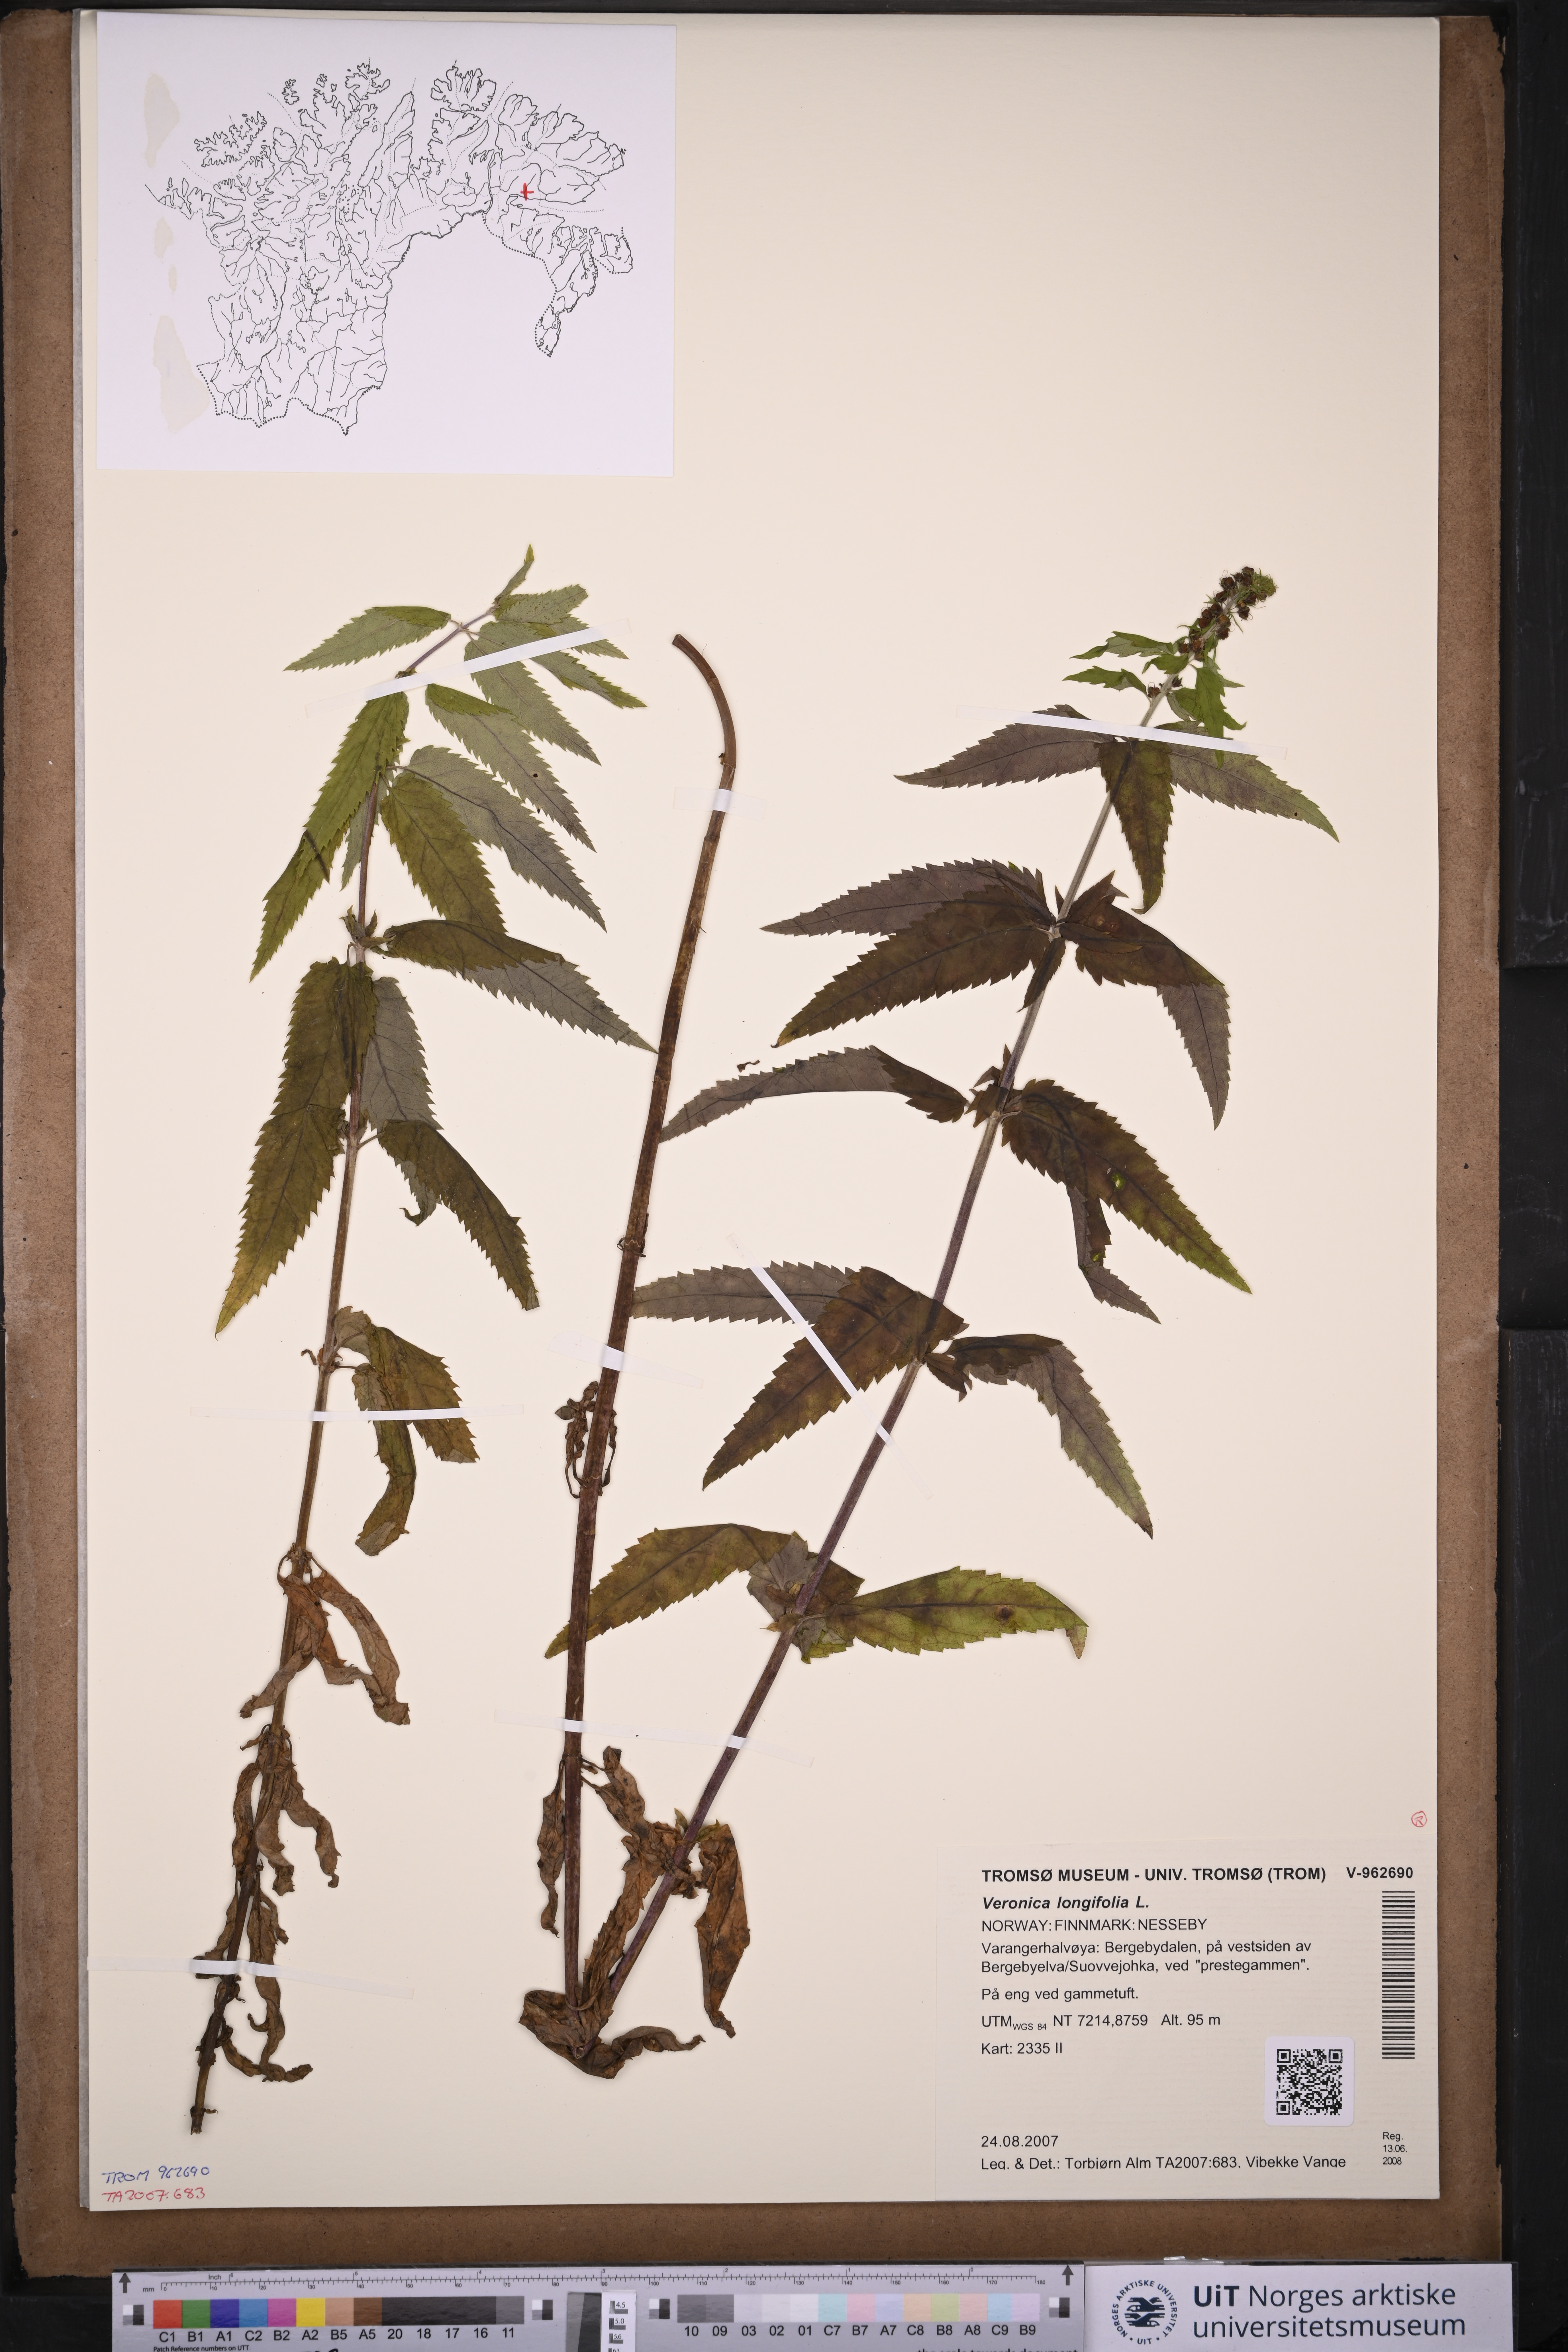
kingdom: Plantae
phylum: Tracheophyta
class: Magnoliopsida
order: Lamiales
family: Plantaginaceae
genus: Veronica
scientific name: Veronica longifolia
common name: Garden speedwell
